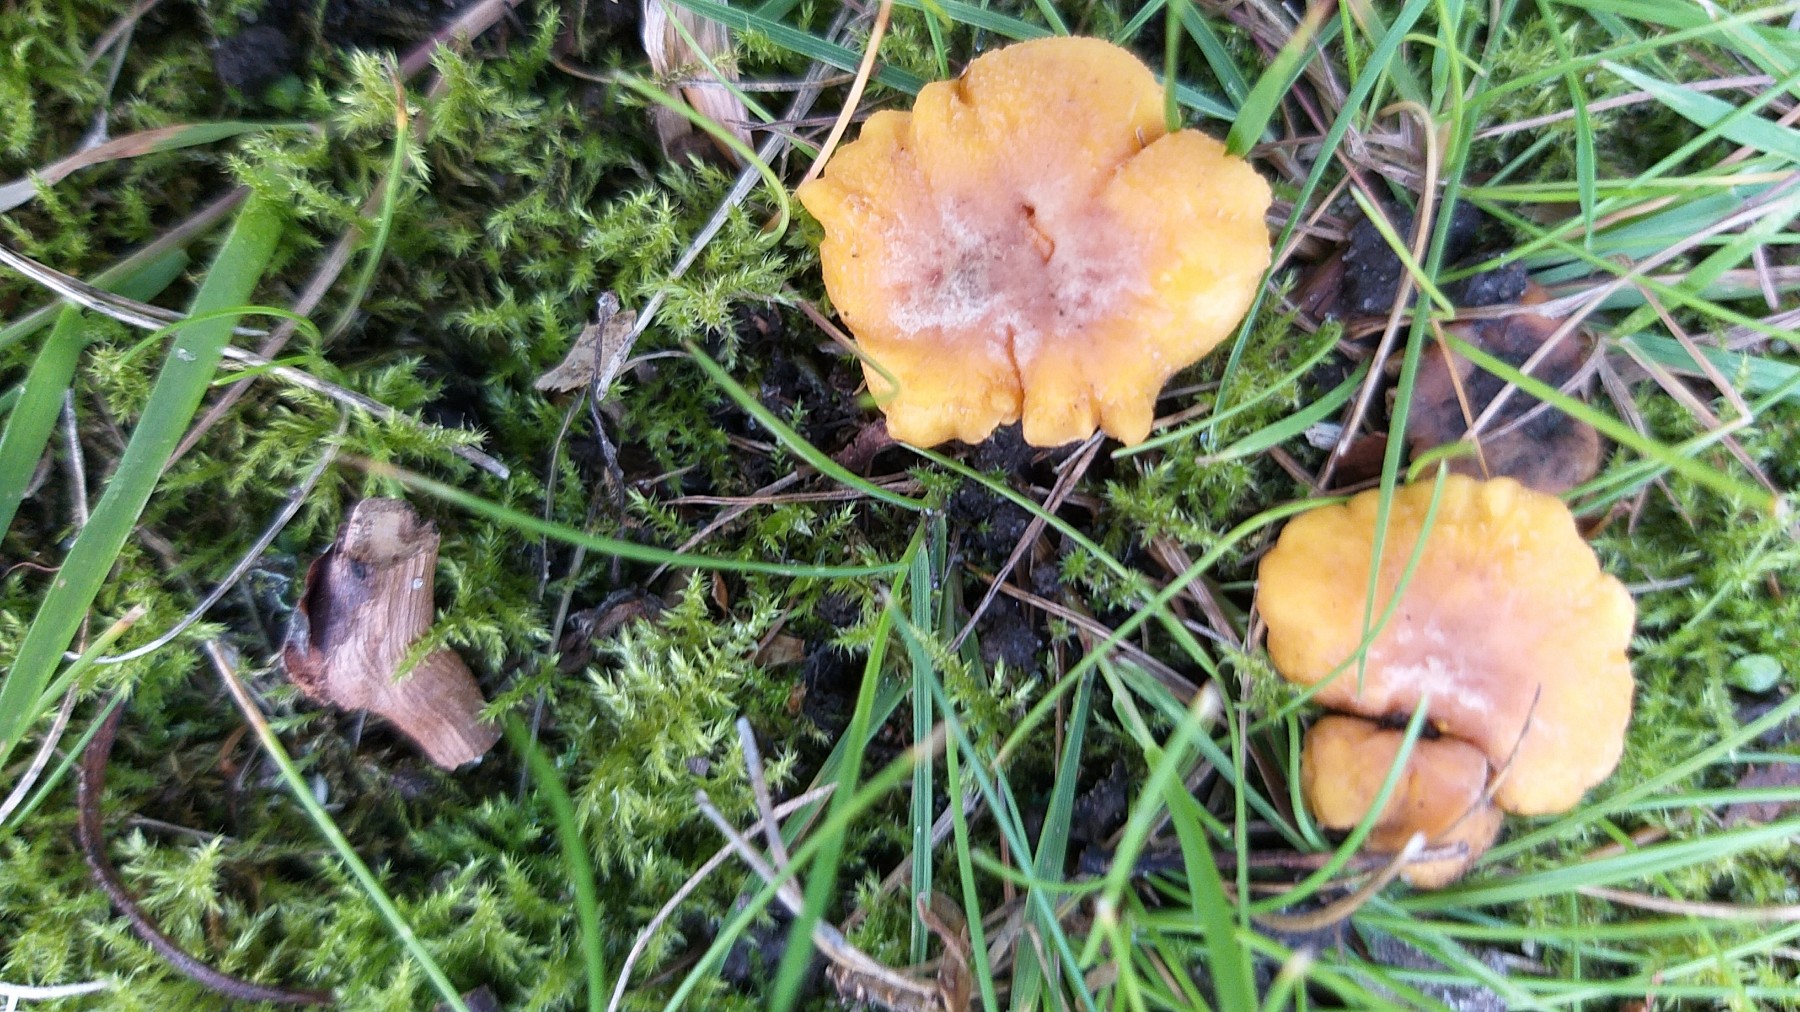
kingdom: Fungi
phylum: Basidiomycota
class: Agaricomycetes
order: Cantharellales
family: Hydnaceae
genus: Cantharellus
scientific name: Cantharellus amethysteus
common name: ametyst-kantarel
